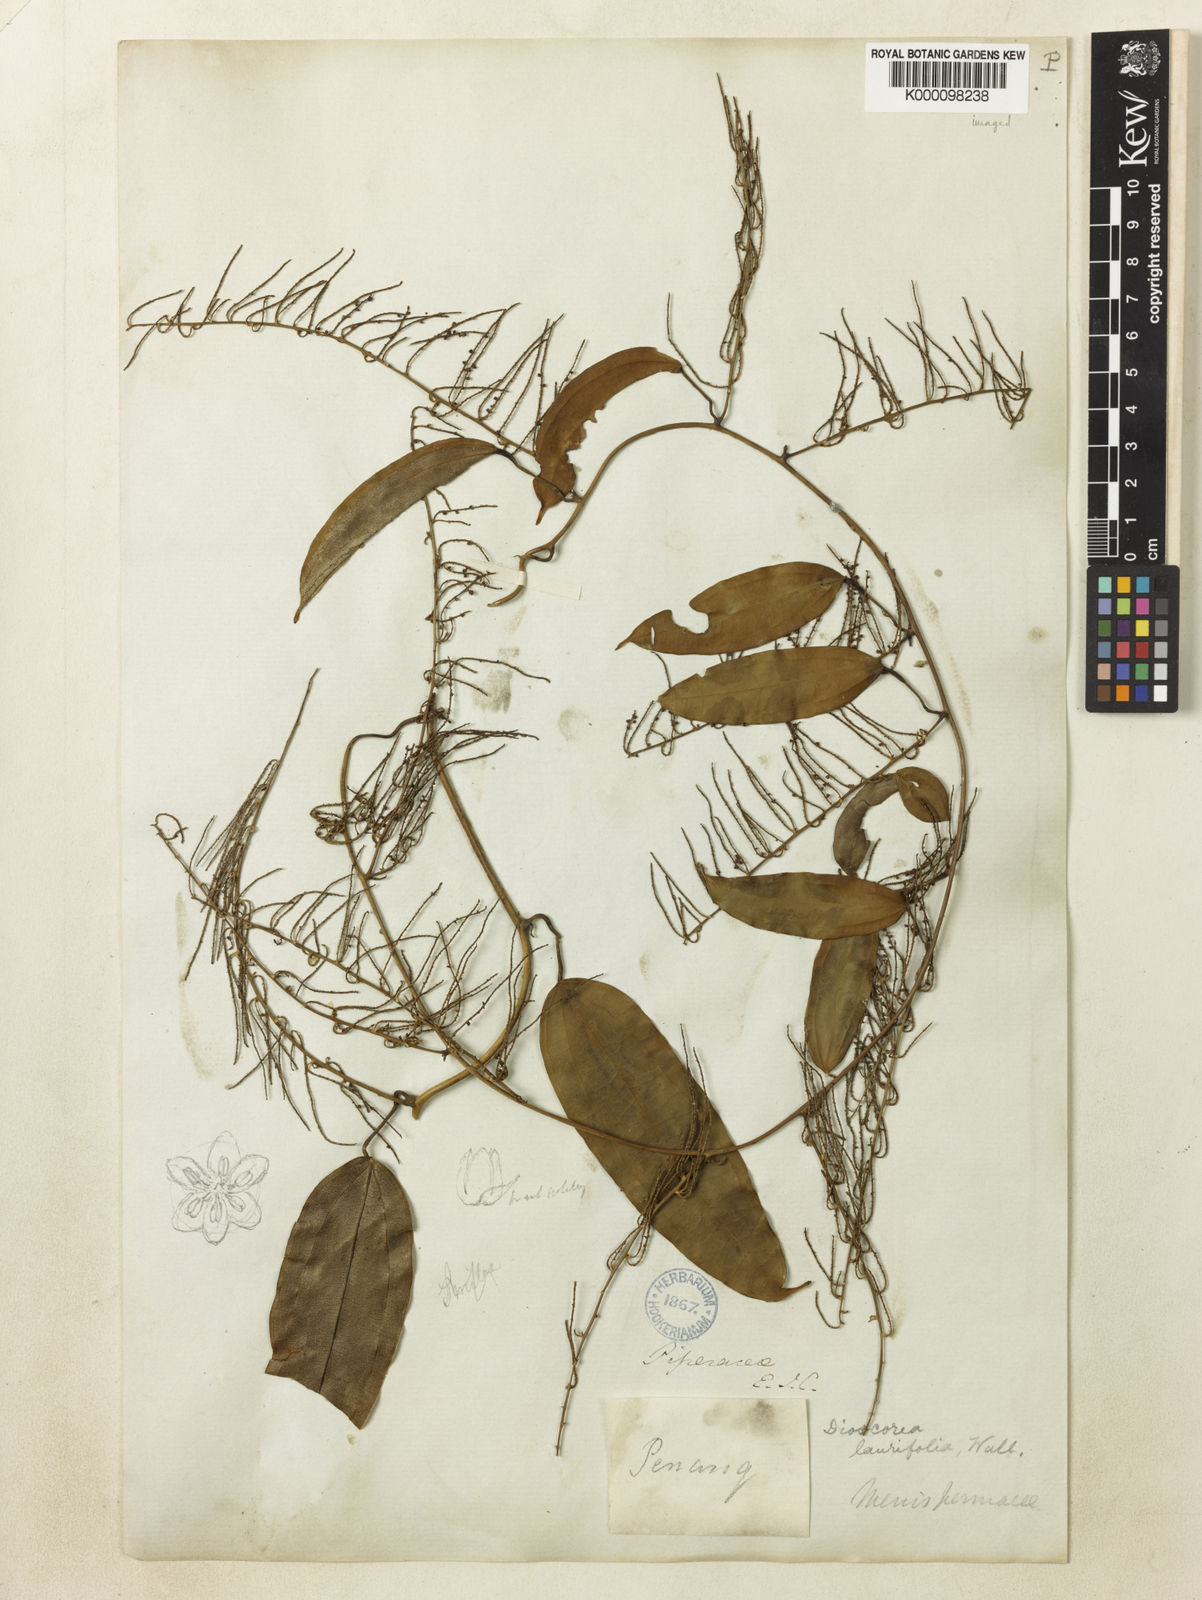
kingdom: Plantae
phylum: Tracheophyta
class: Liliopsida
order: Dioscoreales
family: Dioscoreaceae
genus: Dioscorea
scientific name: Dioscorea
